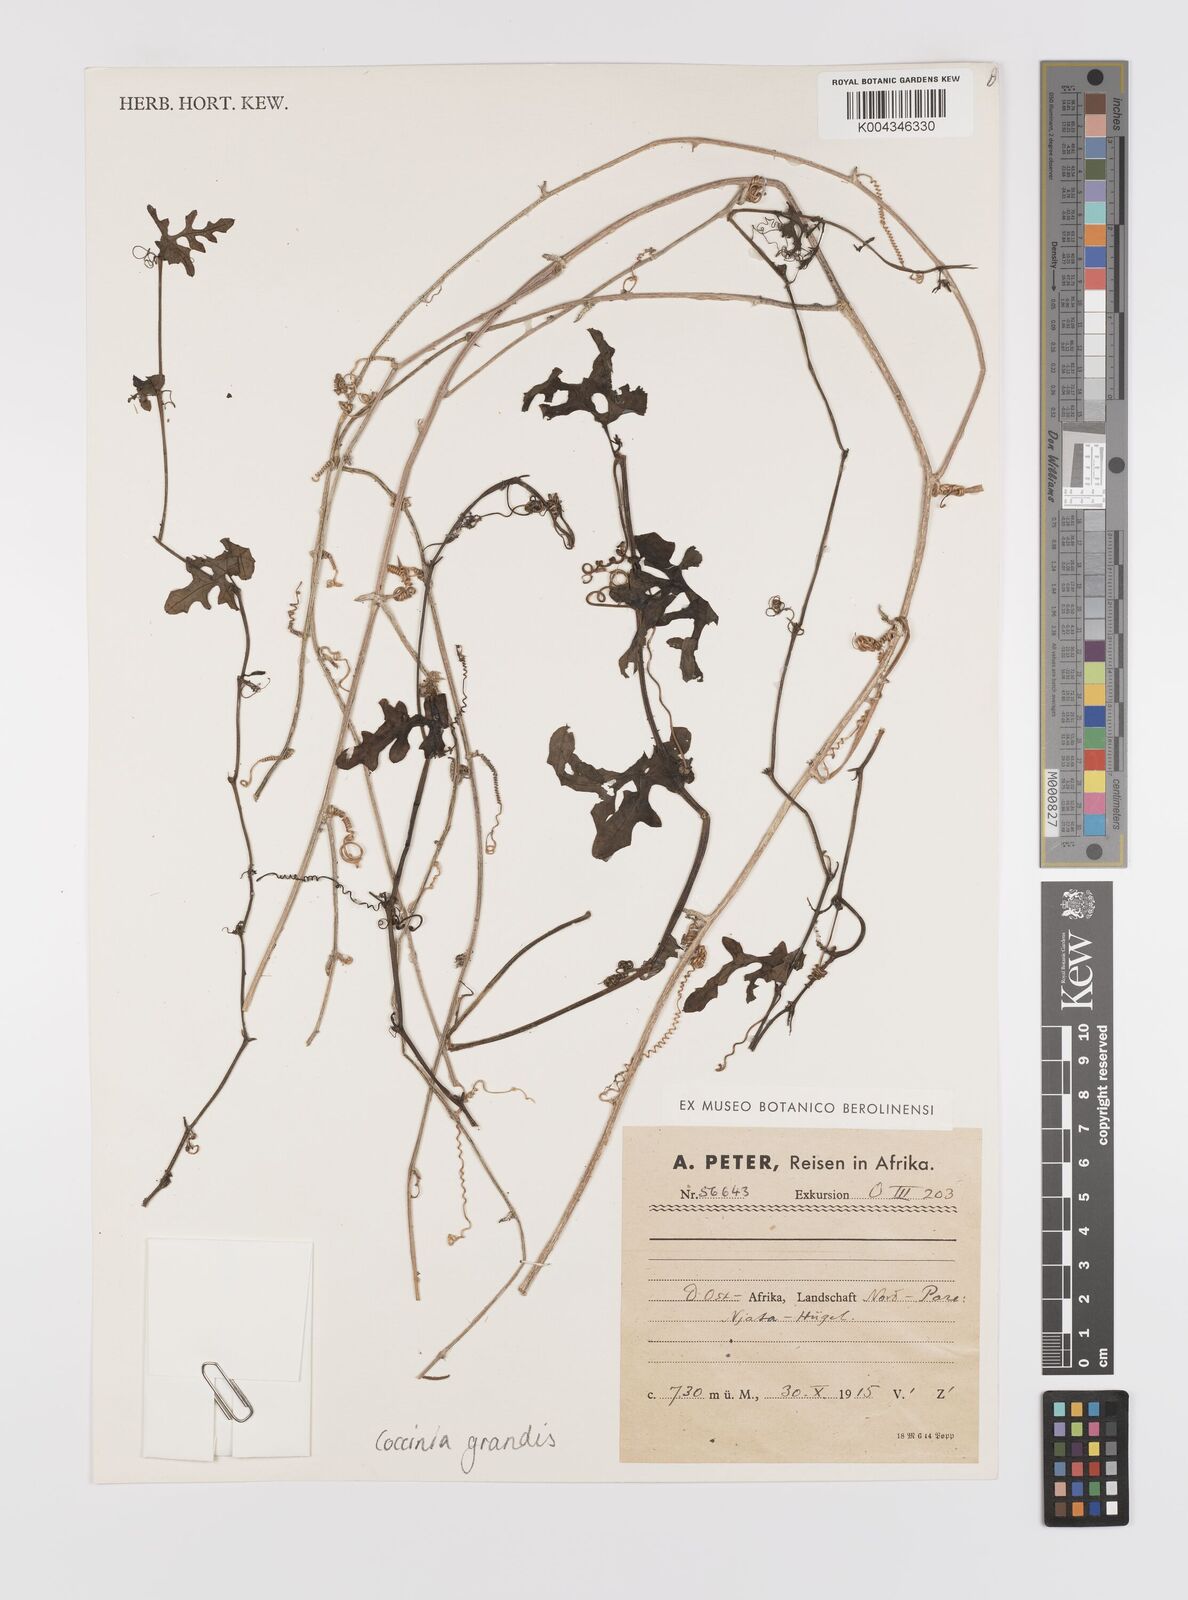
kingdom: Plantae
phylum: Tracheophyta
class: Magnoliopsida
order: Cucurbitales
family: Cucurbitaceae
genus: Coccinia
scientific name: Coccinia grandis
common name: Ivy gourd
